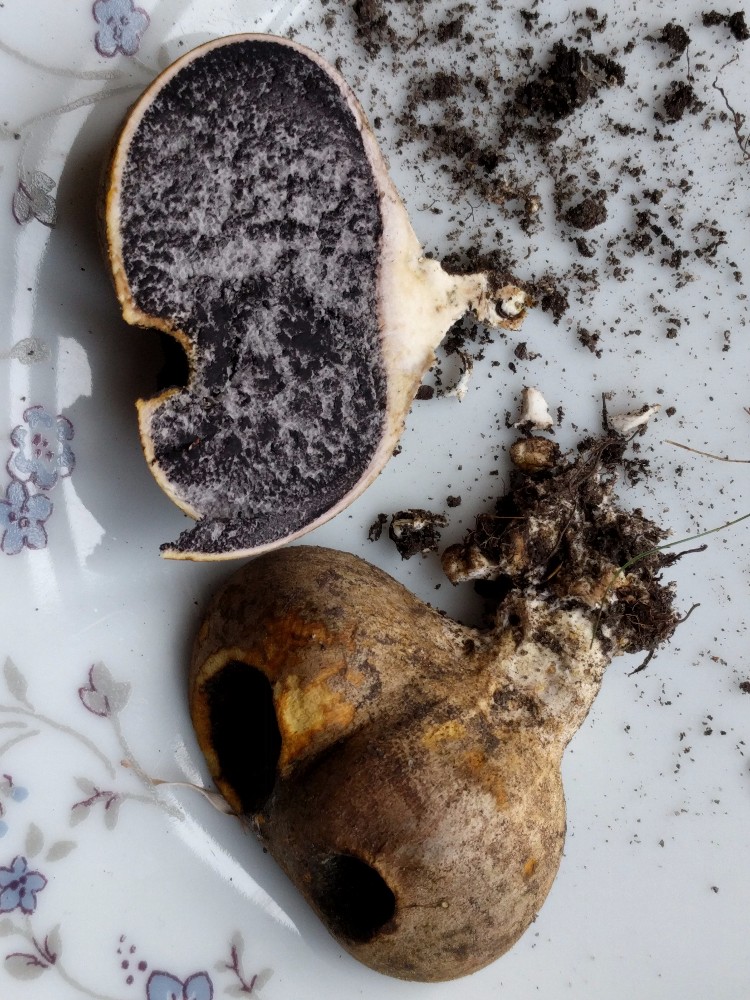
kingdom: Fungi
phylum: Basidiomycota
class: Agaricomycetes
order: Boletales
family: Sclerodermataceae
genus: Scleroderma
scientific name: Scleroderma bovista
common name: bovist-bruskbold
